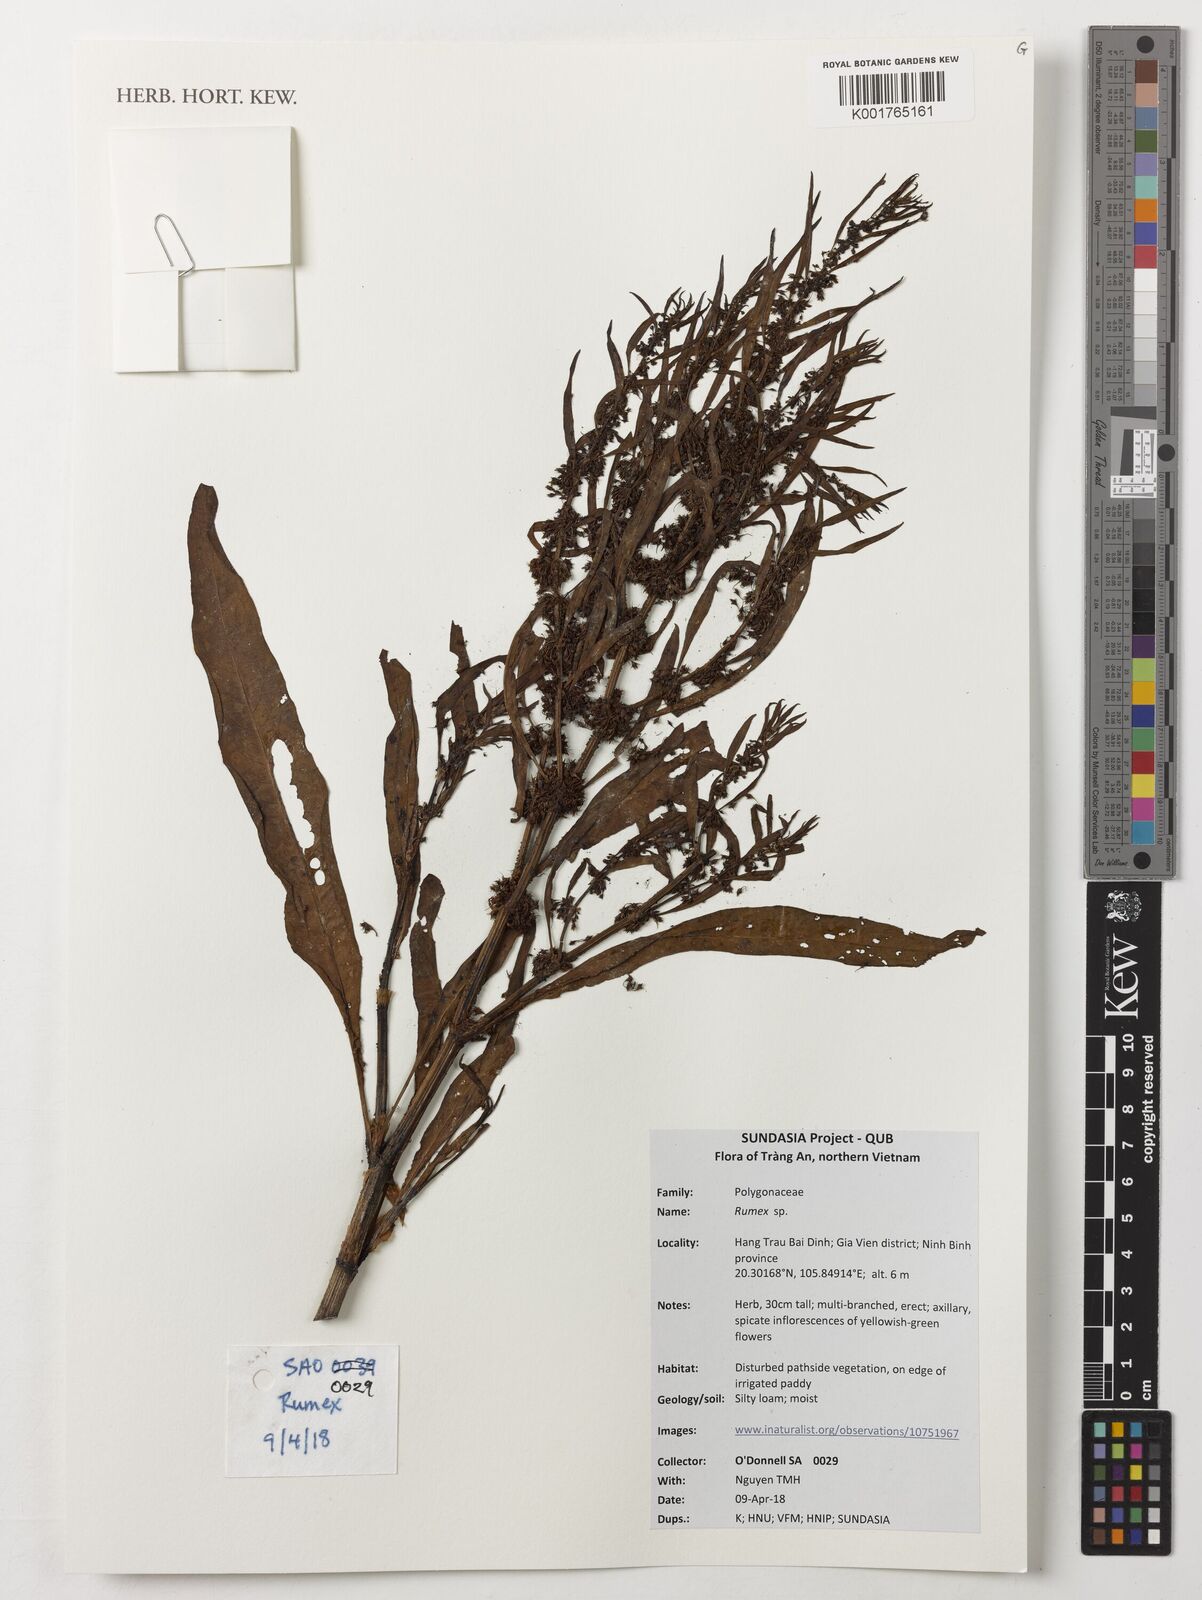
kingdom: Plantae
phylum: Tracheophyta
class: Magnoliopsida
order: Caryophyllales
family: Polygonaceae
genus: Rumex
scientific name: Rumex
